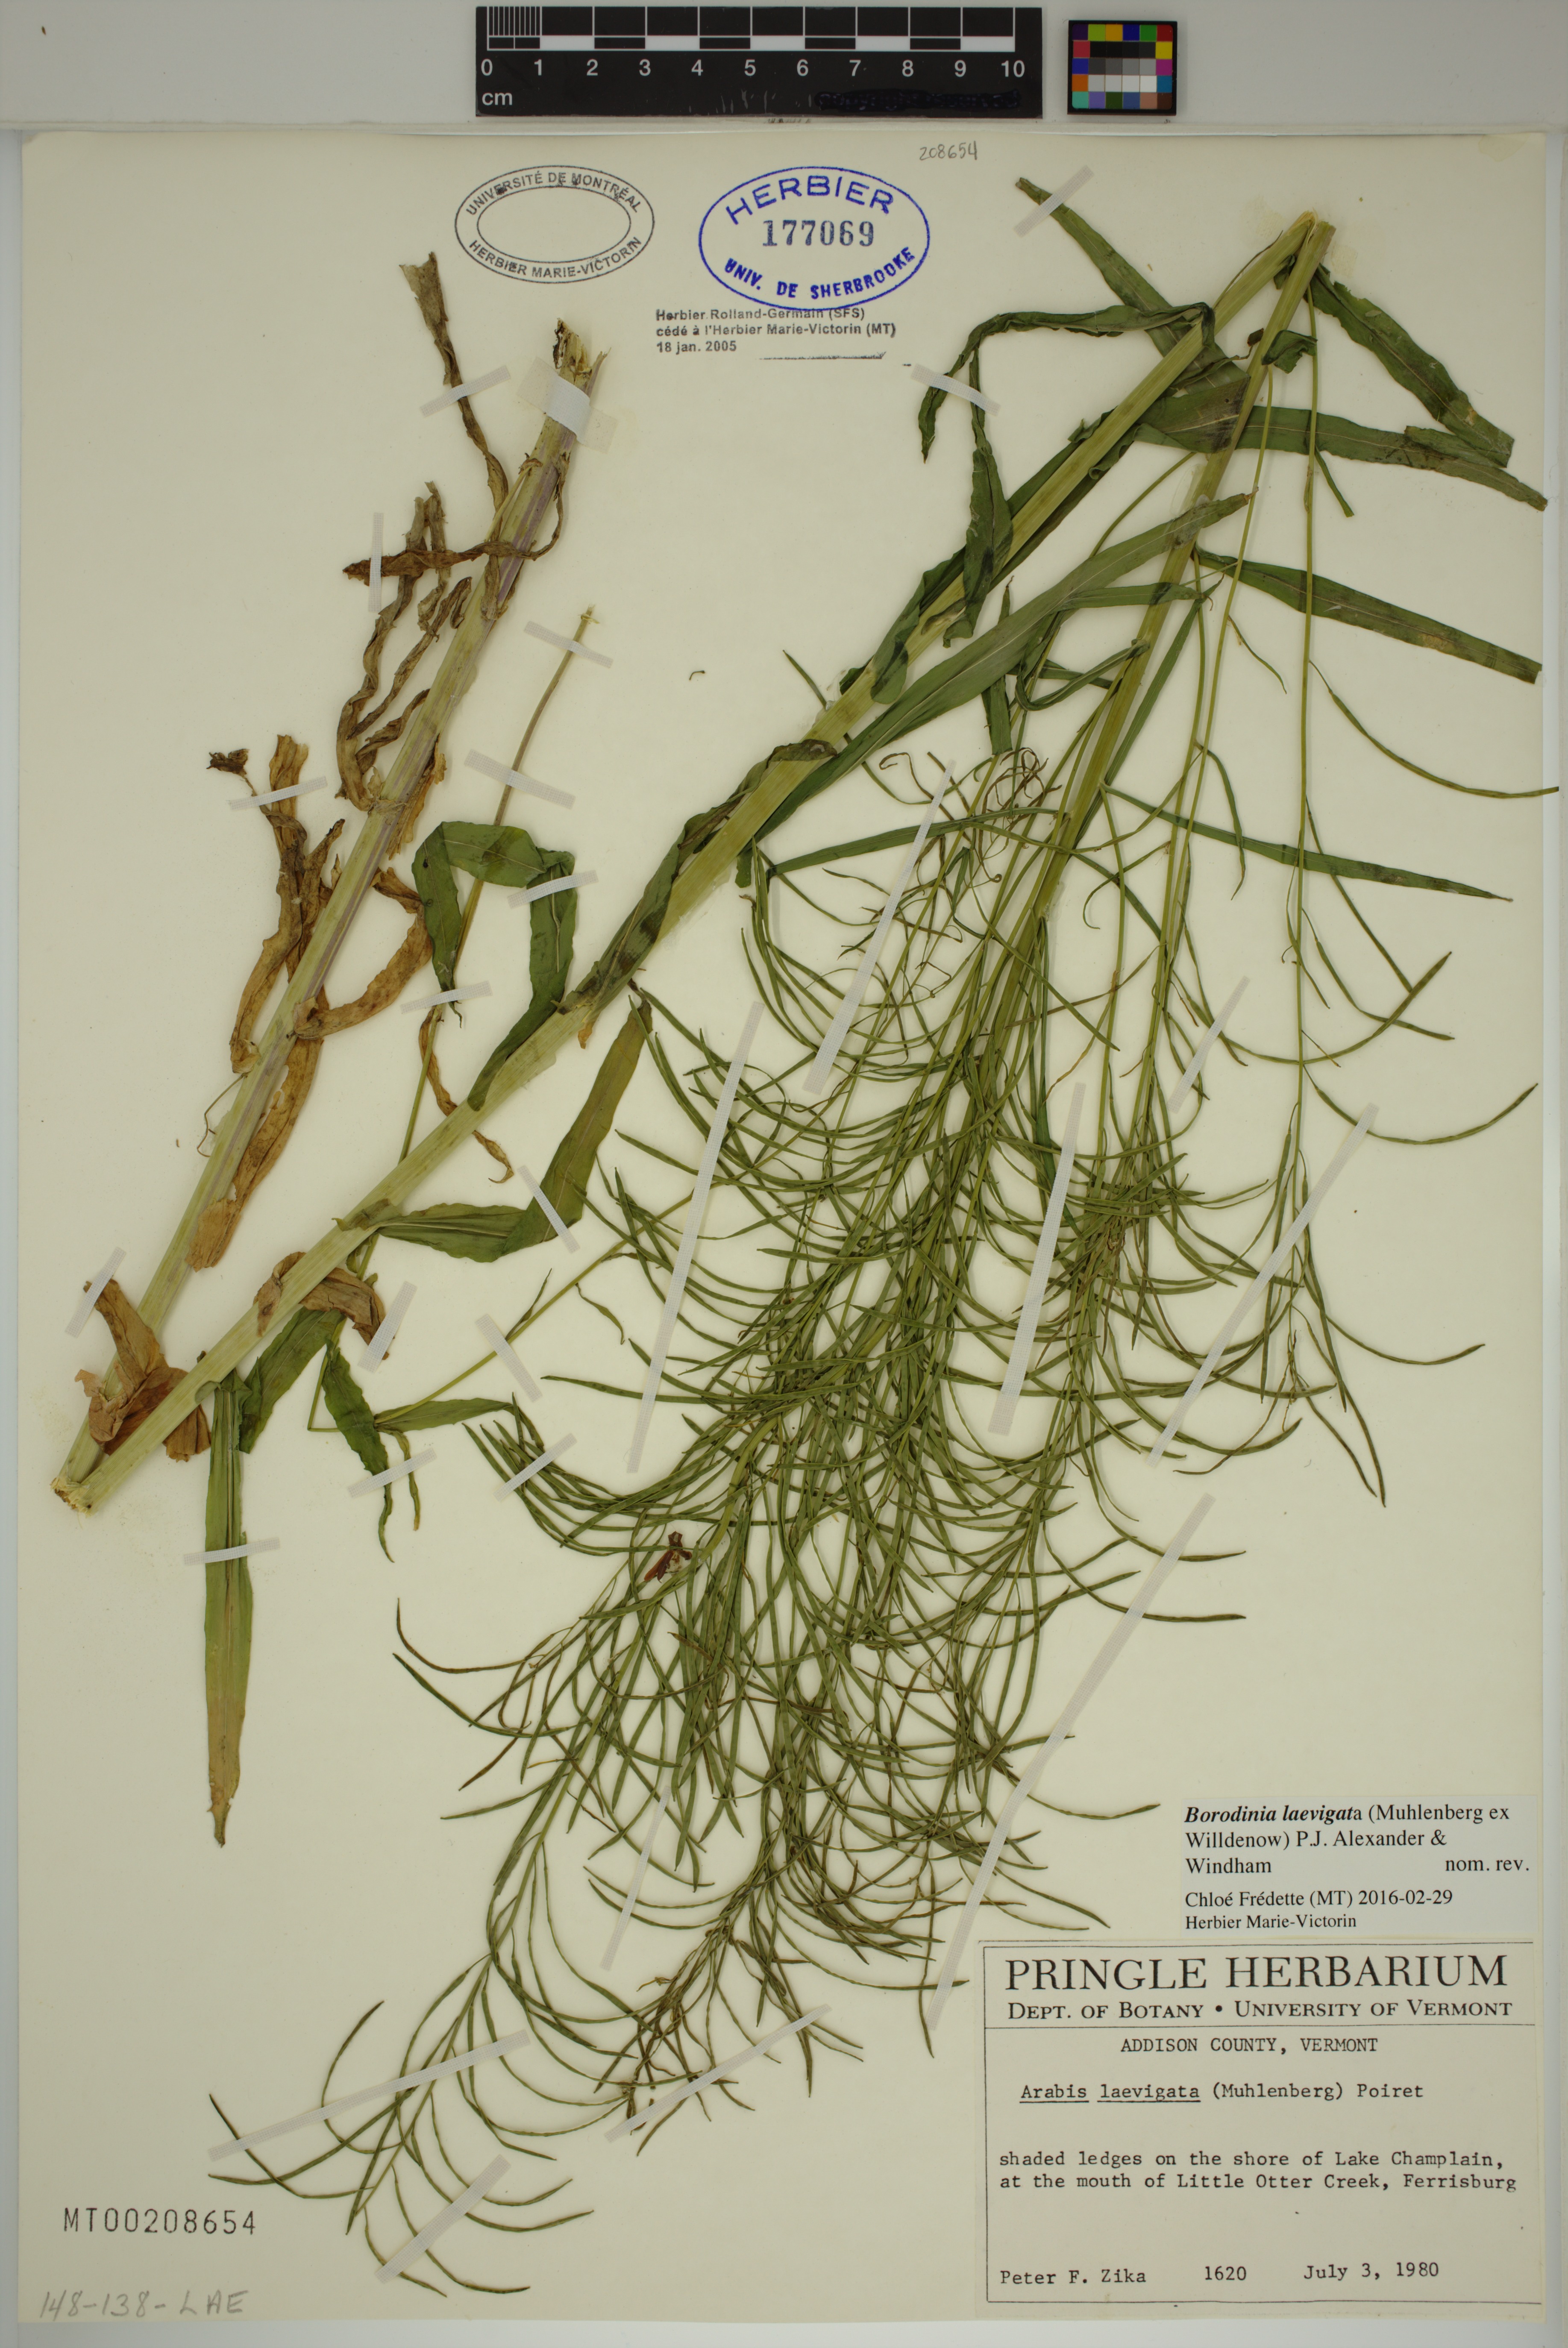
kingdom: Plantae
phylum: Tracheophyta
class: Magnoliopsida
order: Brassicales
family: Brassicaceae
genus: Borodinia
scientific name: Borodinia laevigata
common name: Smooth rockcress
